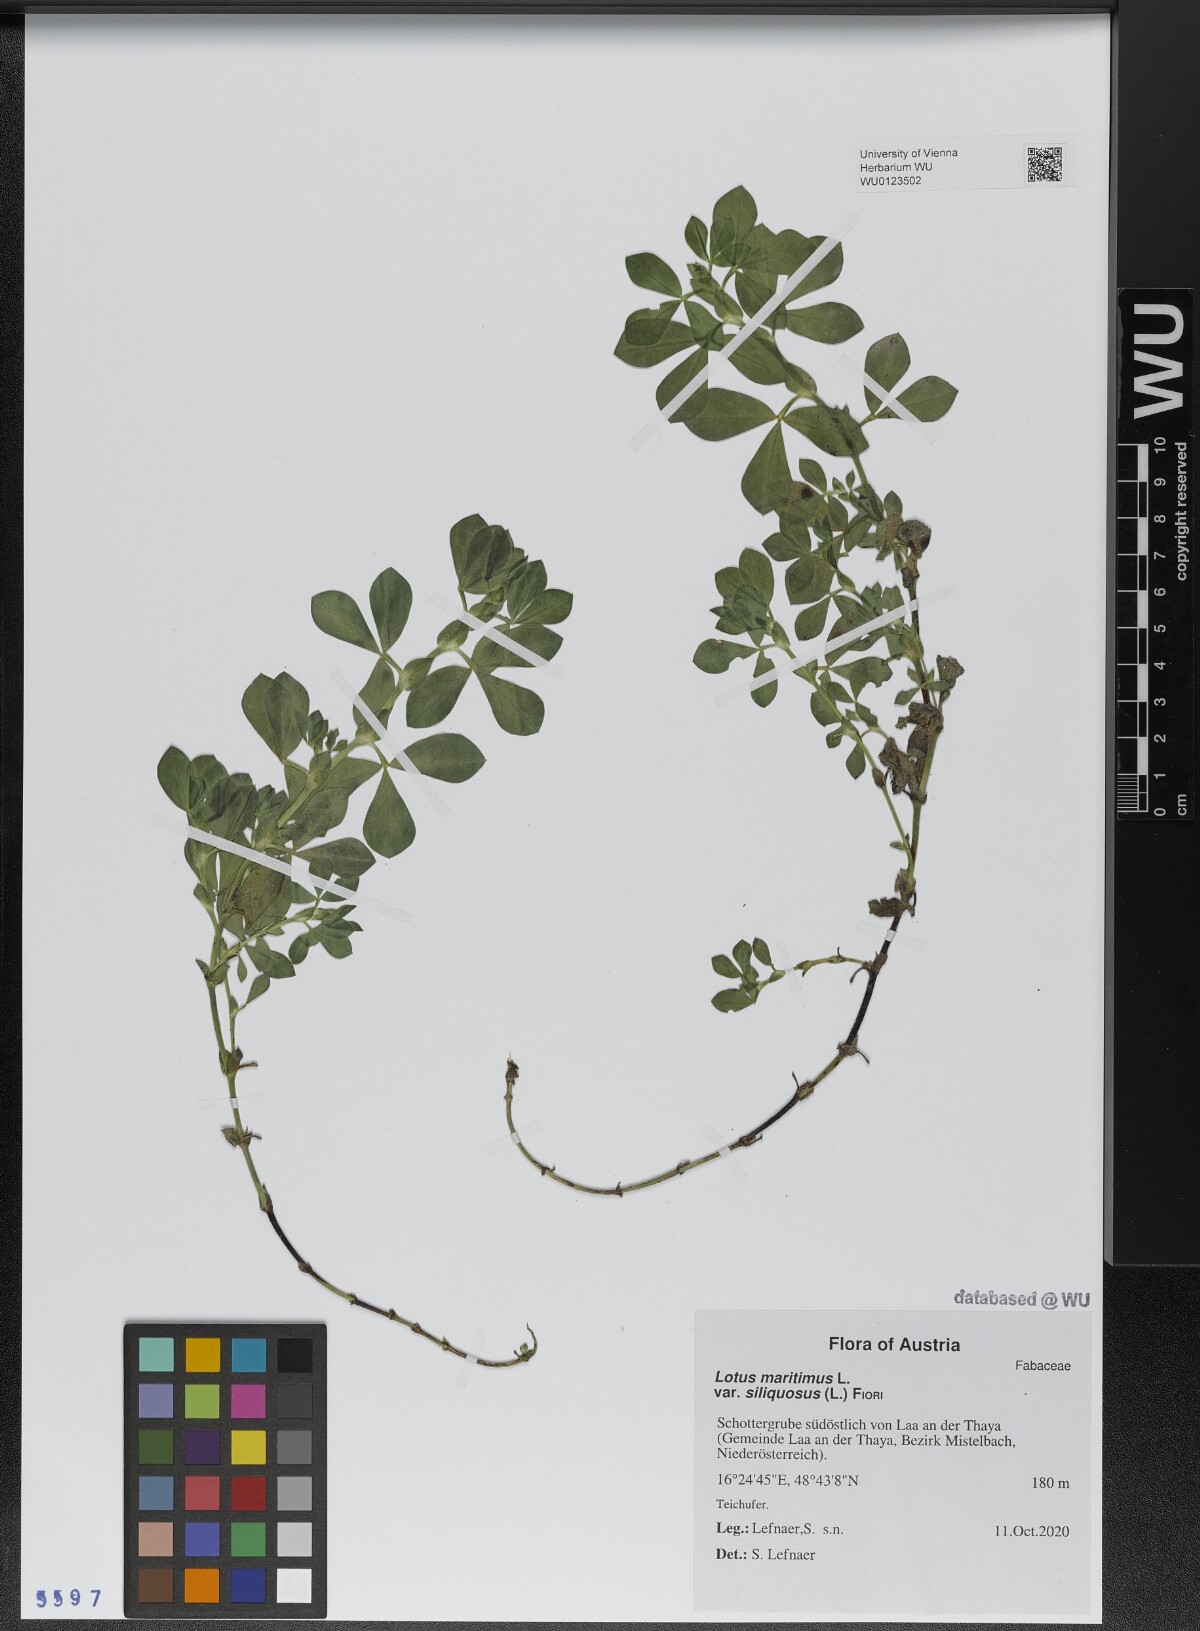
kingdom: Plantae
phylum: Tracheophyta
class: Magnoliopsida
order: Fabales
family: Fabaceae
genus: Lathyrus
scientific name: Lathyrus inconspicuus
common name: Inconspicuous pea
